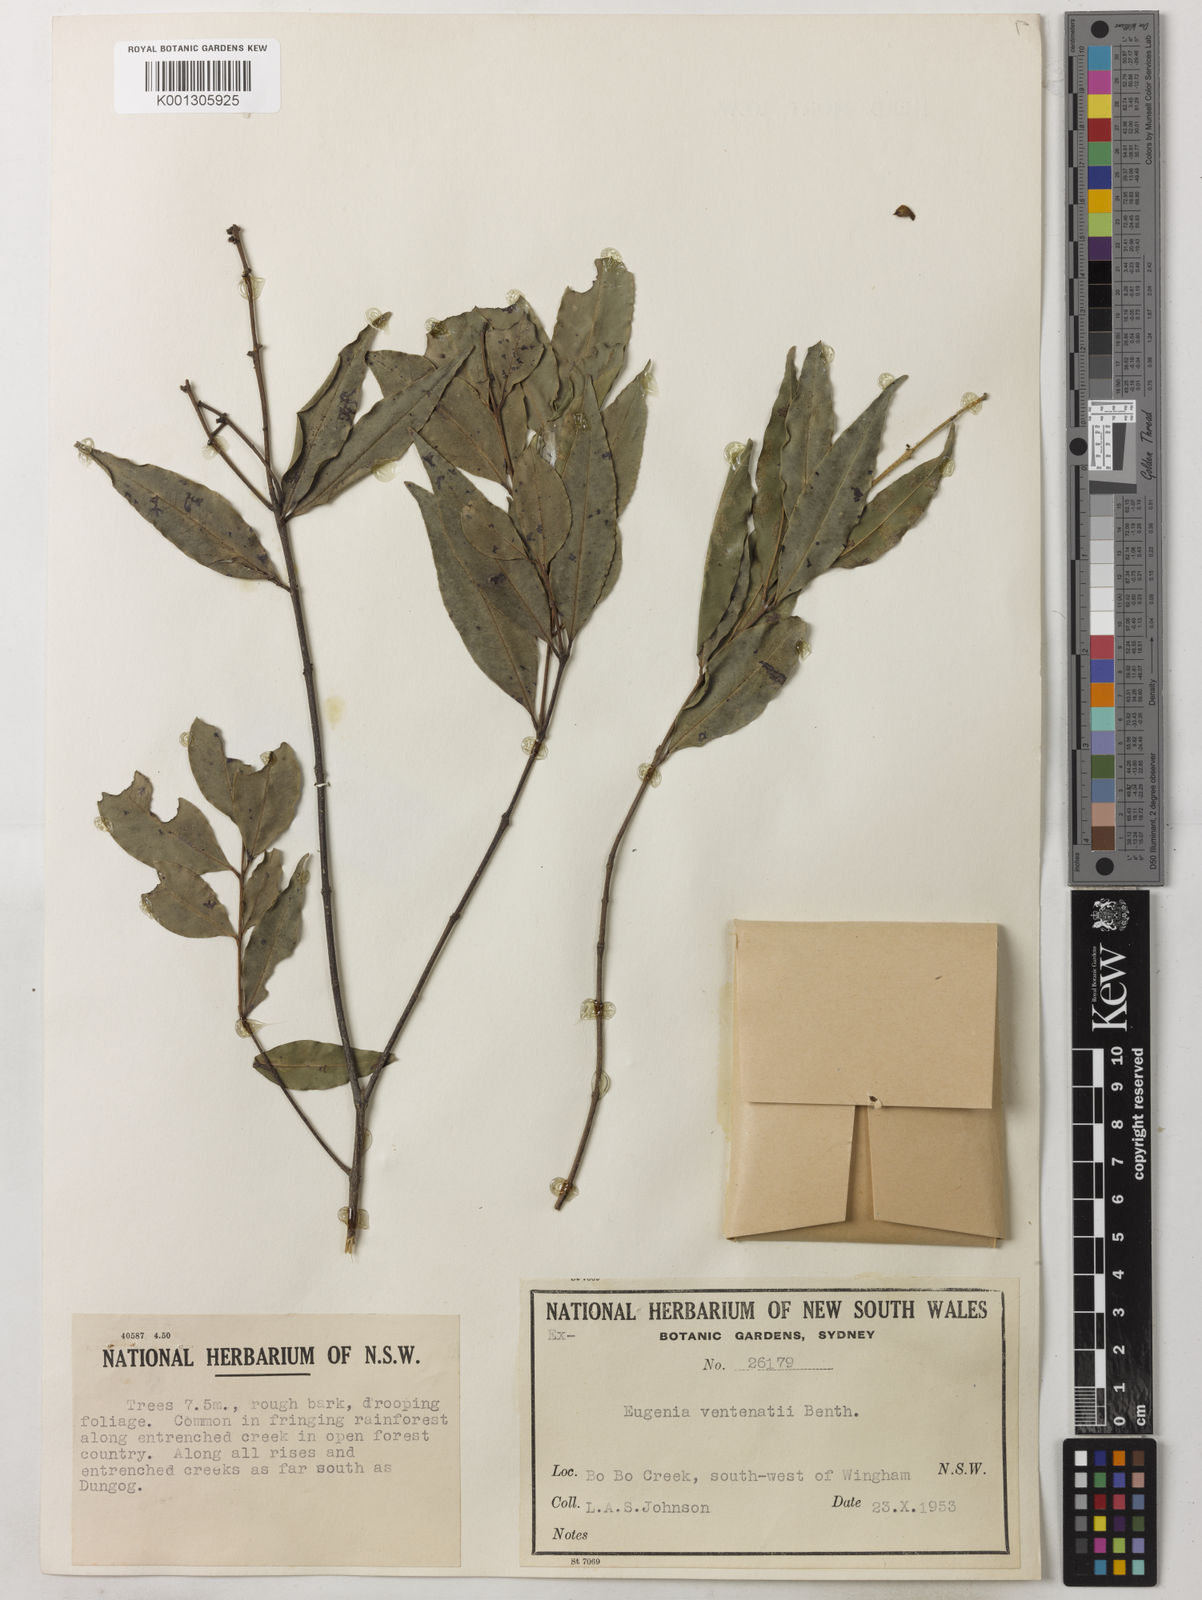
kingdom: Plantae
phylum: Tracheophyta
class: Magnoliopsida
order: Myrtales
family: Myrtaceae
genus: Syzygium
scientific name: Syzygium floribundum
